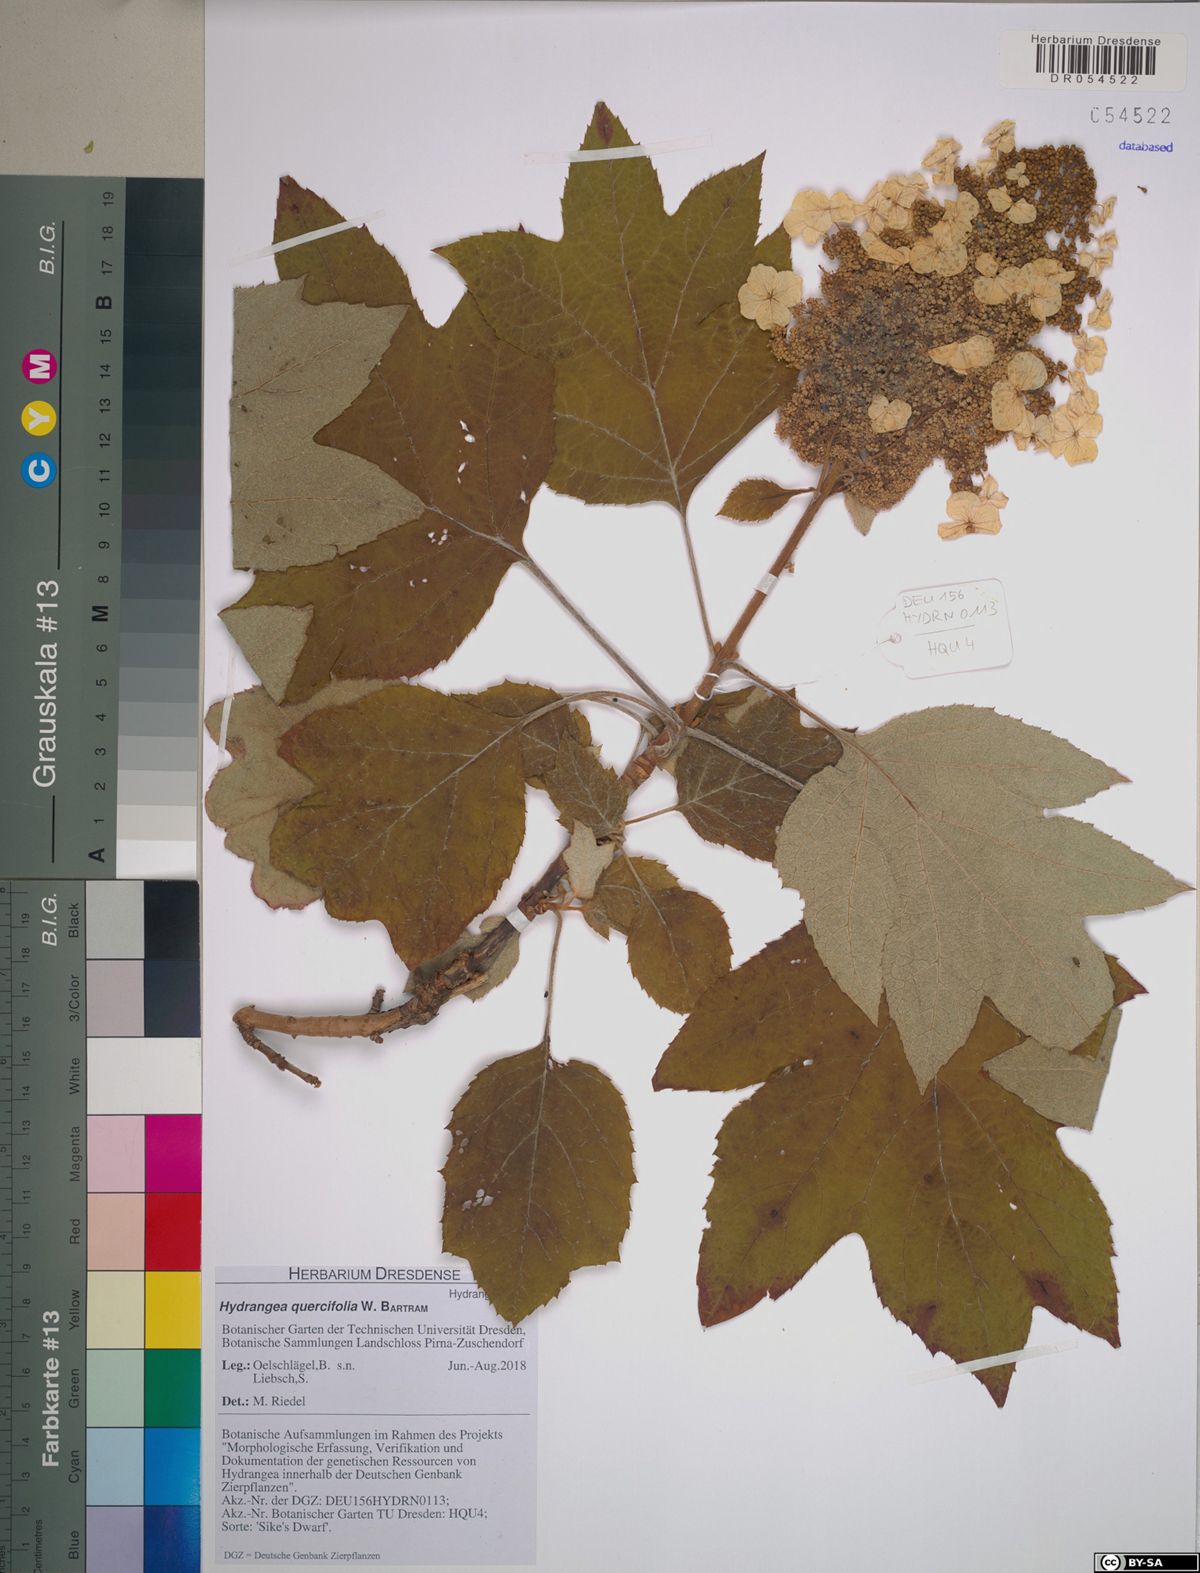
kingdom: Plantae
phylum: Tracheophyta
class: Magnoliopsida
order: Cornales
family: Hydrangeaceae
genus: Hydrangea
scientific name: Hydrangea quercifolia
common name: Oak-leaf hydrangea
